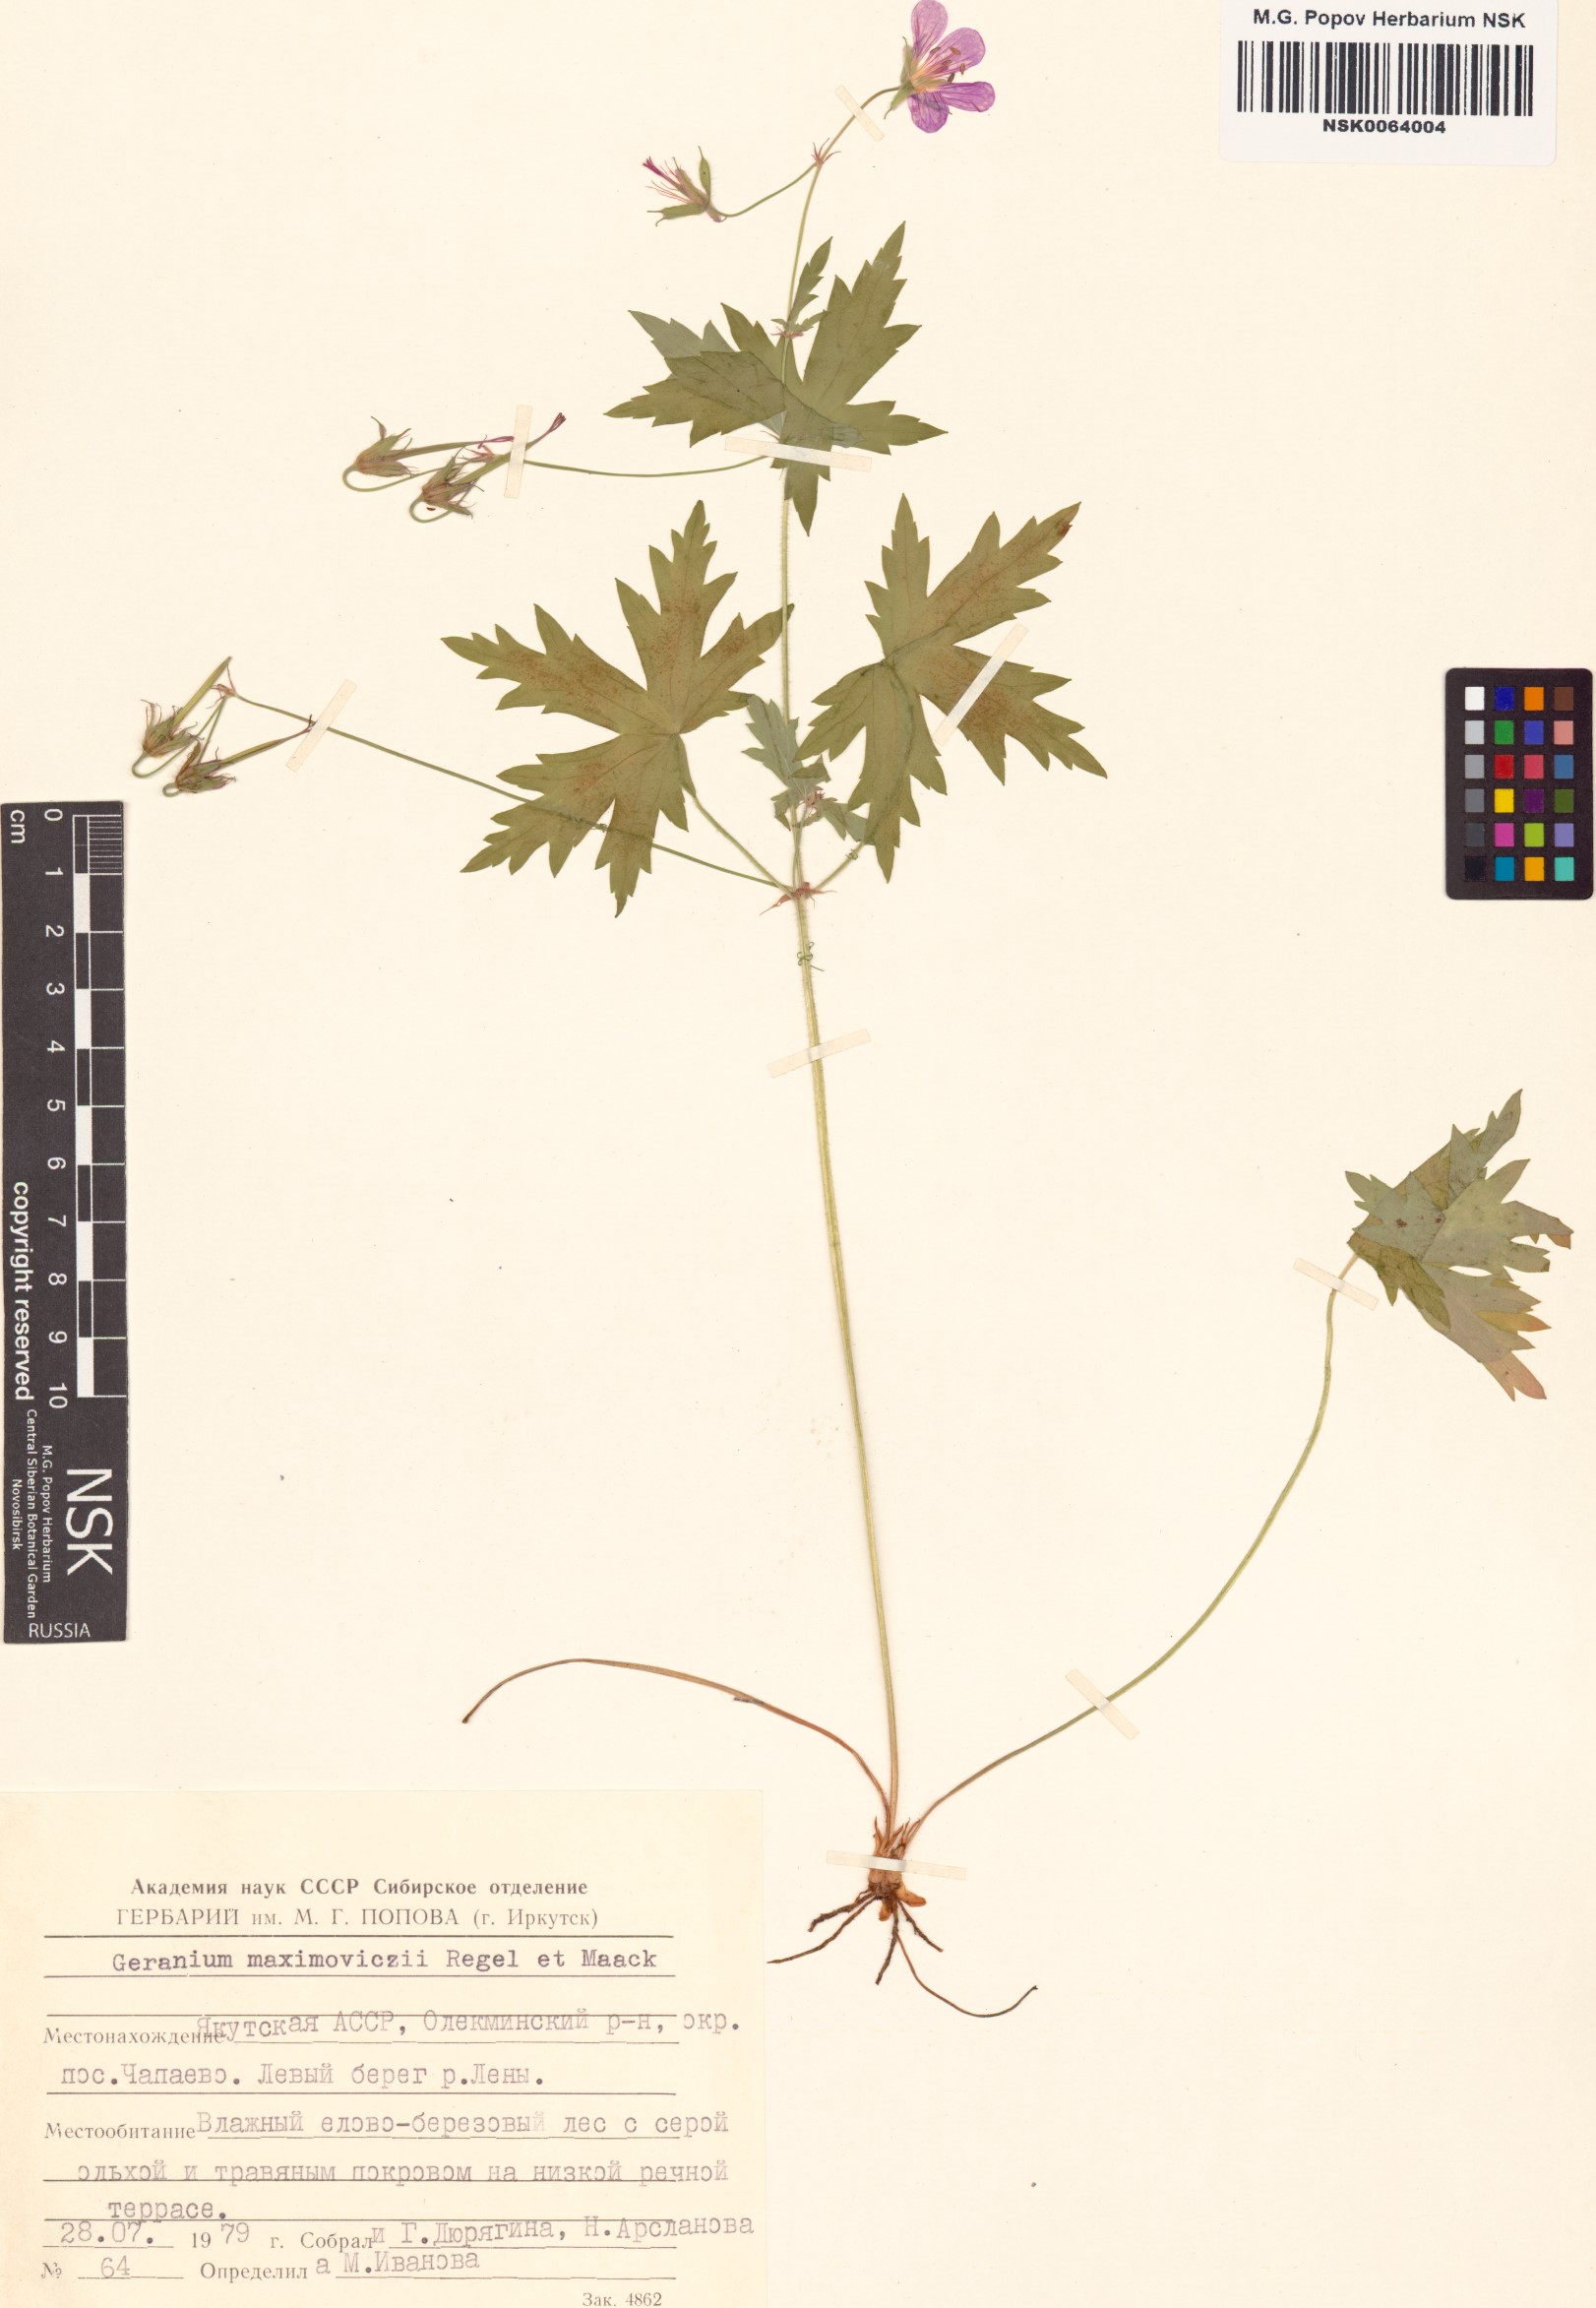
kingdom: Plantae
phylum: Tracheophyta
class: Magnoliopsida
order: Geraniales
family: Geraniaceae
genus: Geranium
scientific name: Geranium maximowiczii
